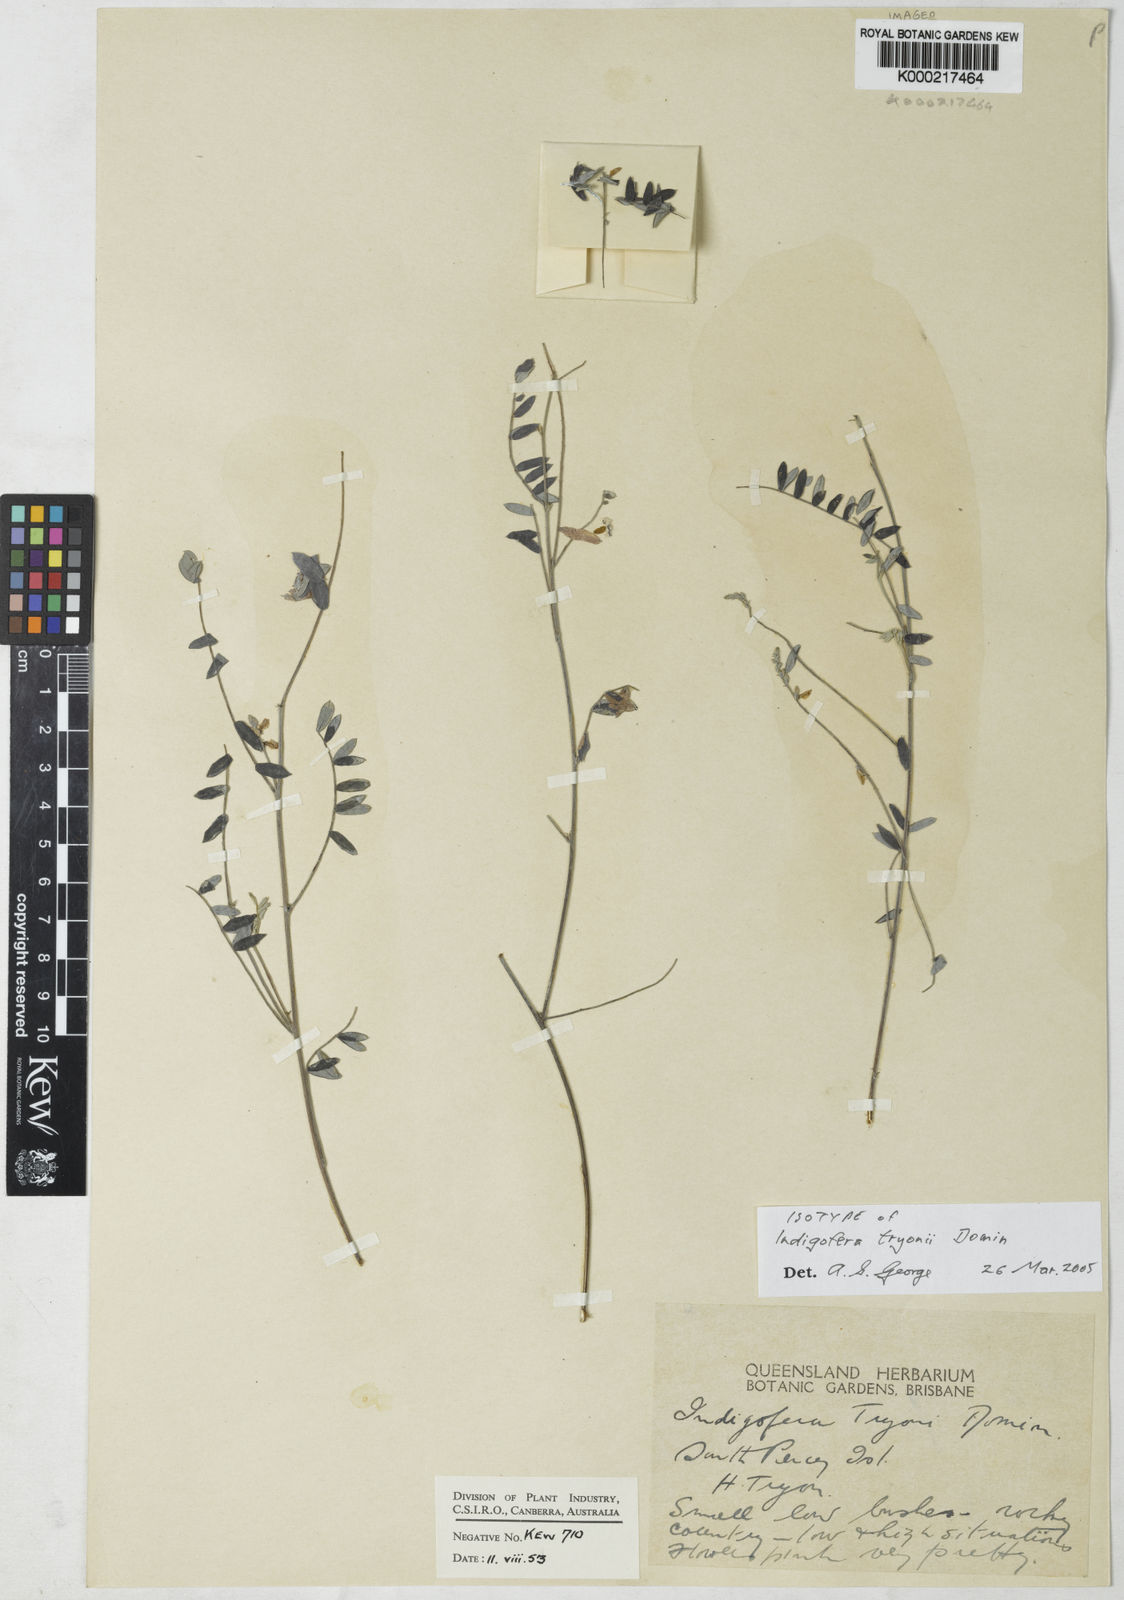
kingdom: Plantae
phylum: Tracheophyta
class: Magnoliopsida
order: Fabales
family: Fabaceae
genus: Indigofera
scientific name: Indigofera tryonii
